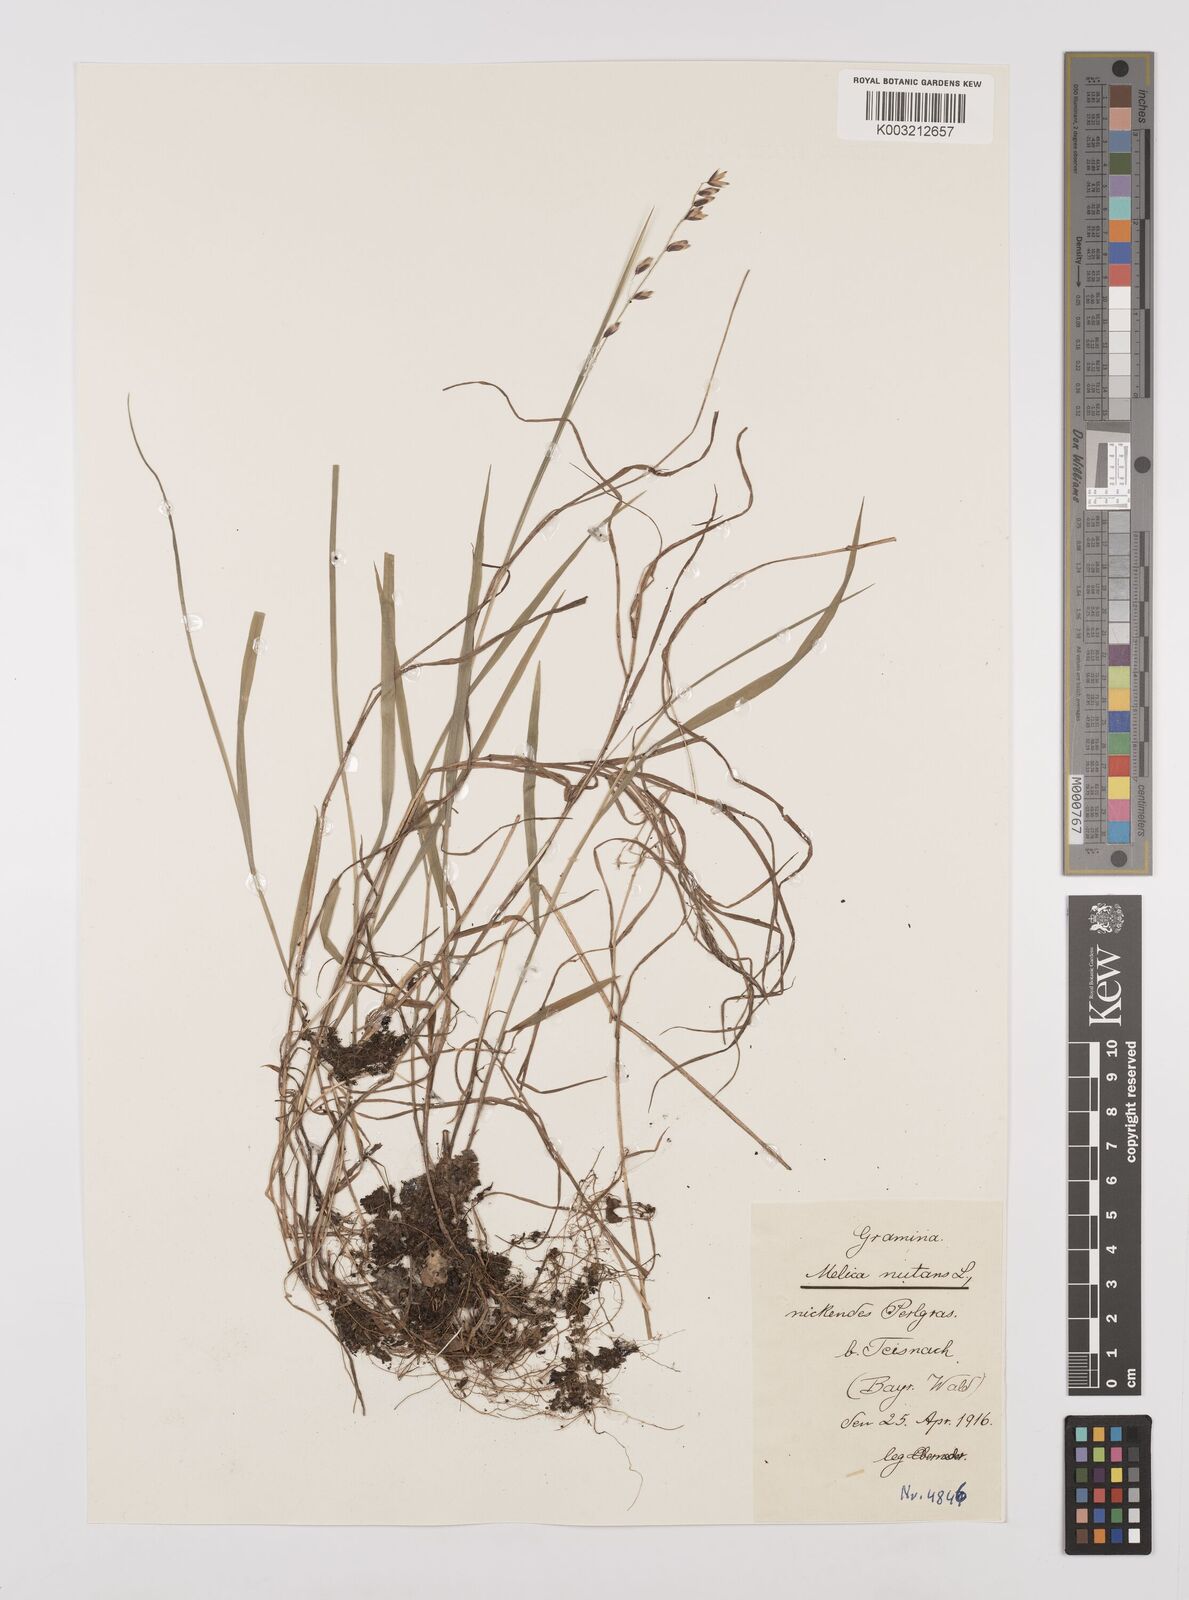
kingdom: Plantae
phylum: Tracheophyta
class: Liliopsida
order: Poales
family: Poaceae
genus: Melica
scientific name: Melica
